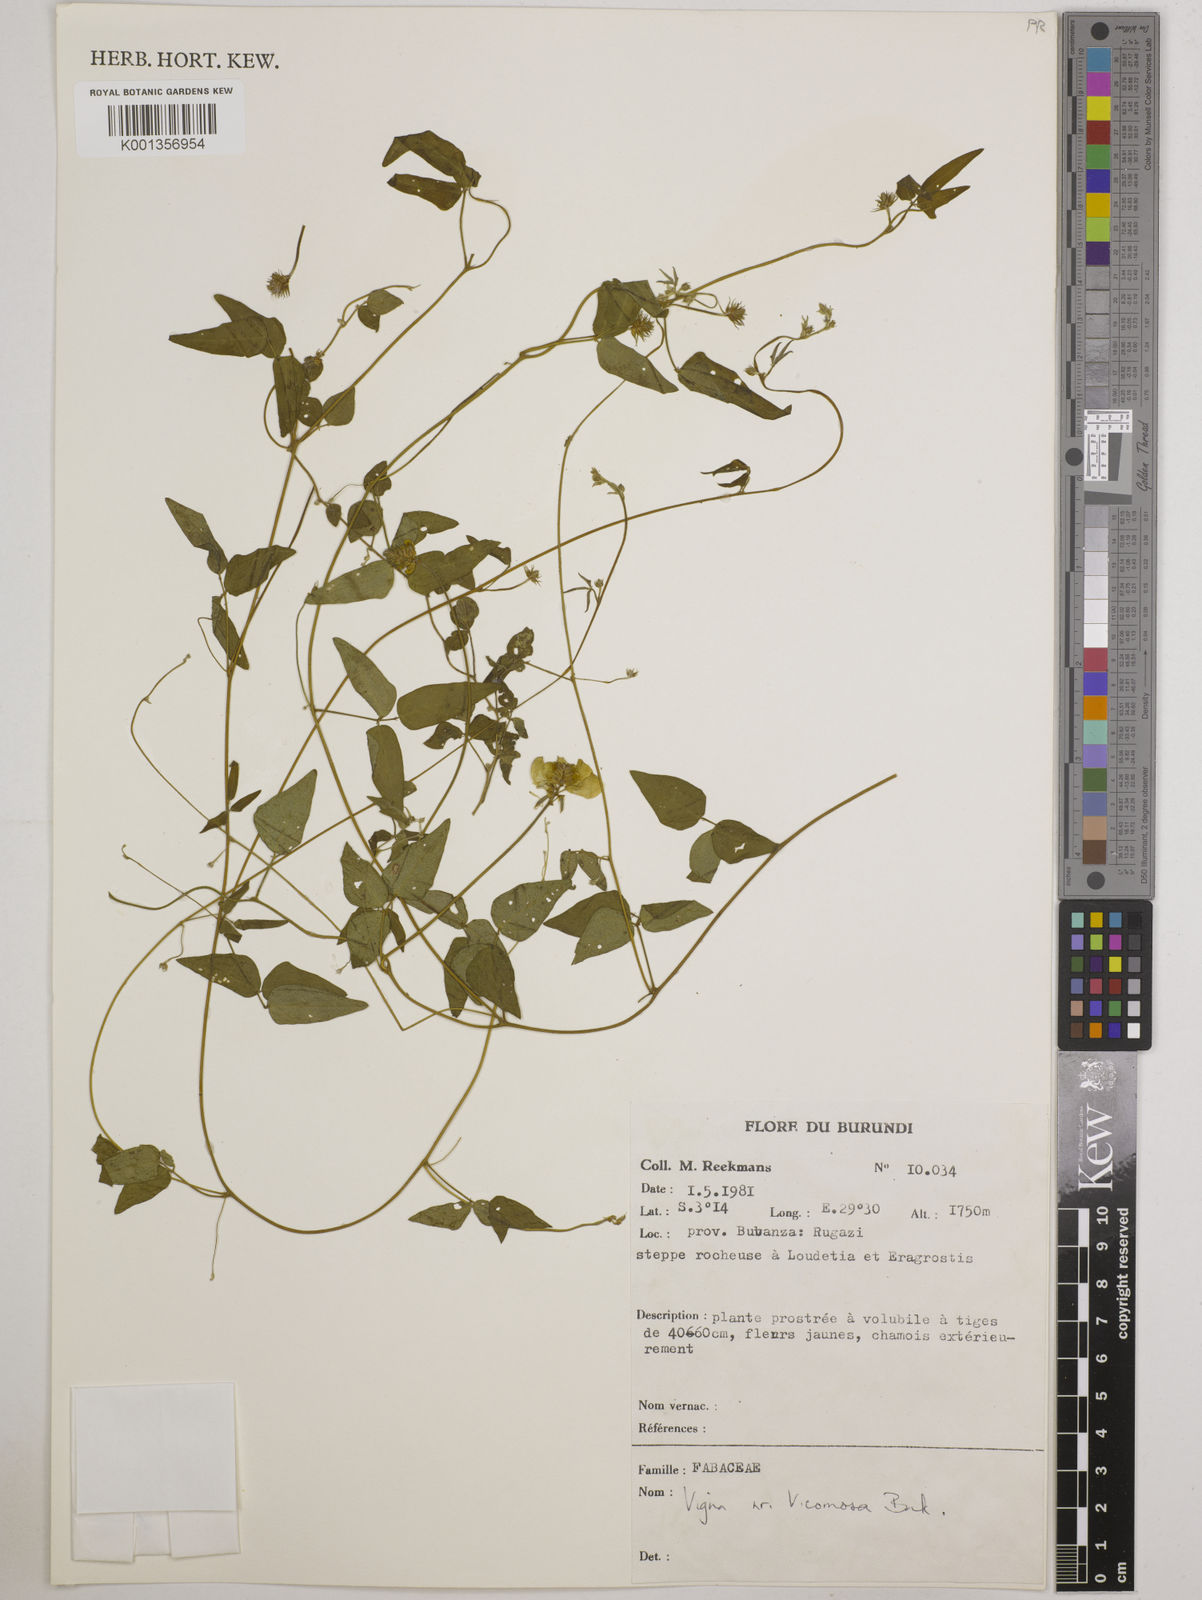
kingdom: Plantae
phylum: Tracheophyta
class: Magnoliopsida
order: Fabales
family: Fabaceae
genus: Vigna
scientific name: Vigna comosa
